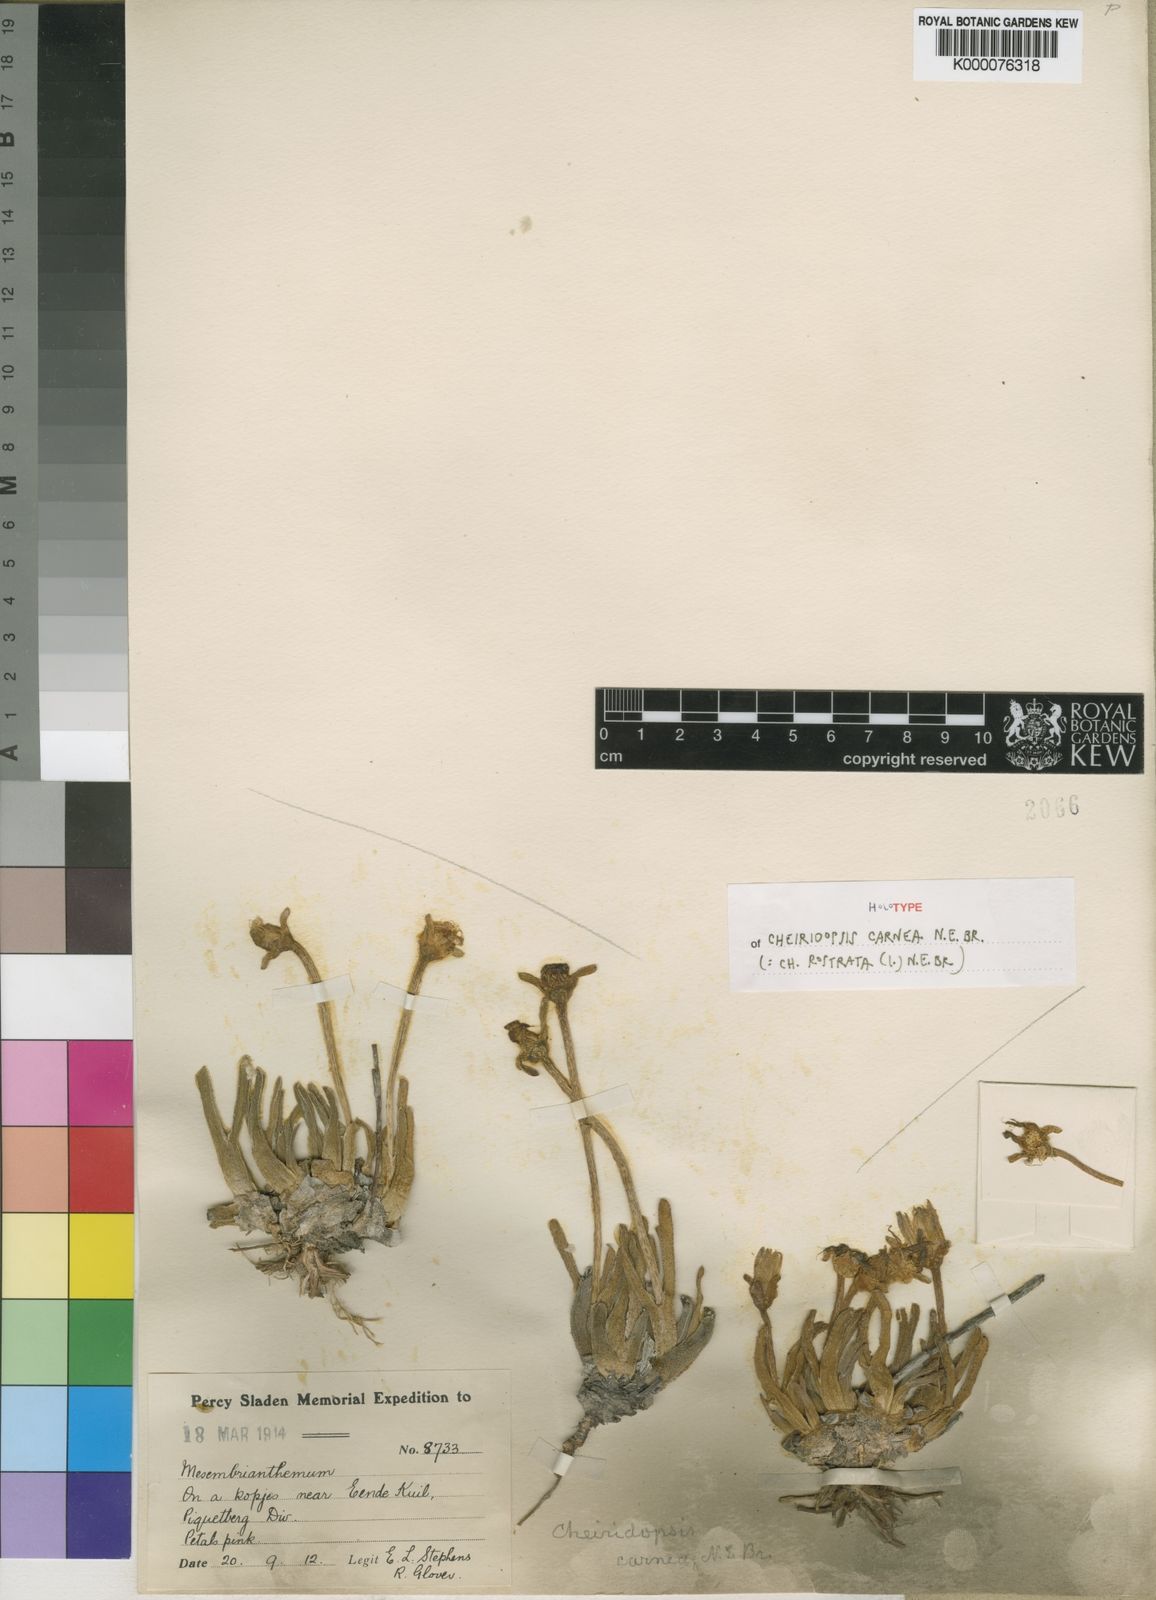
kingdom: Plantae
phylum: Tracheophyta
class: Magnoliopsida
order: Caryophyllales
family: Aizoaceae
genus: Cheiridopsis
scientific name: Cheiridopsis rostrata
